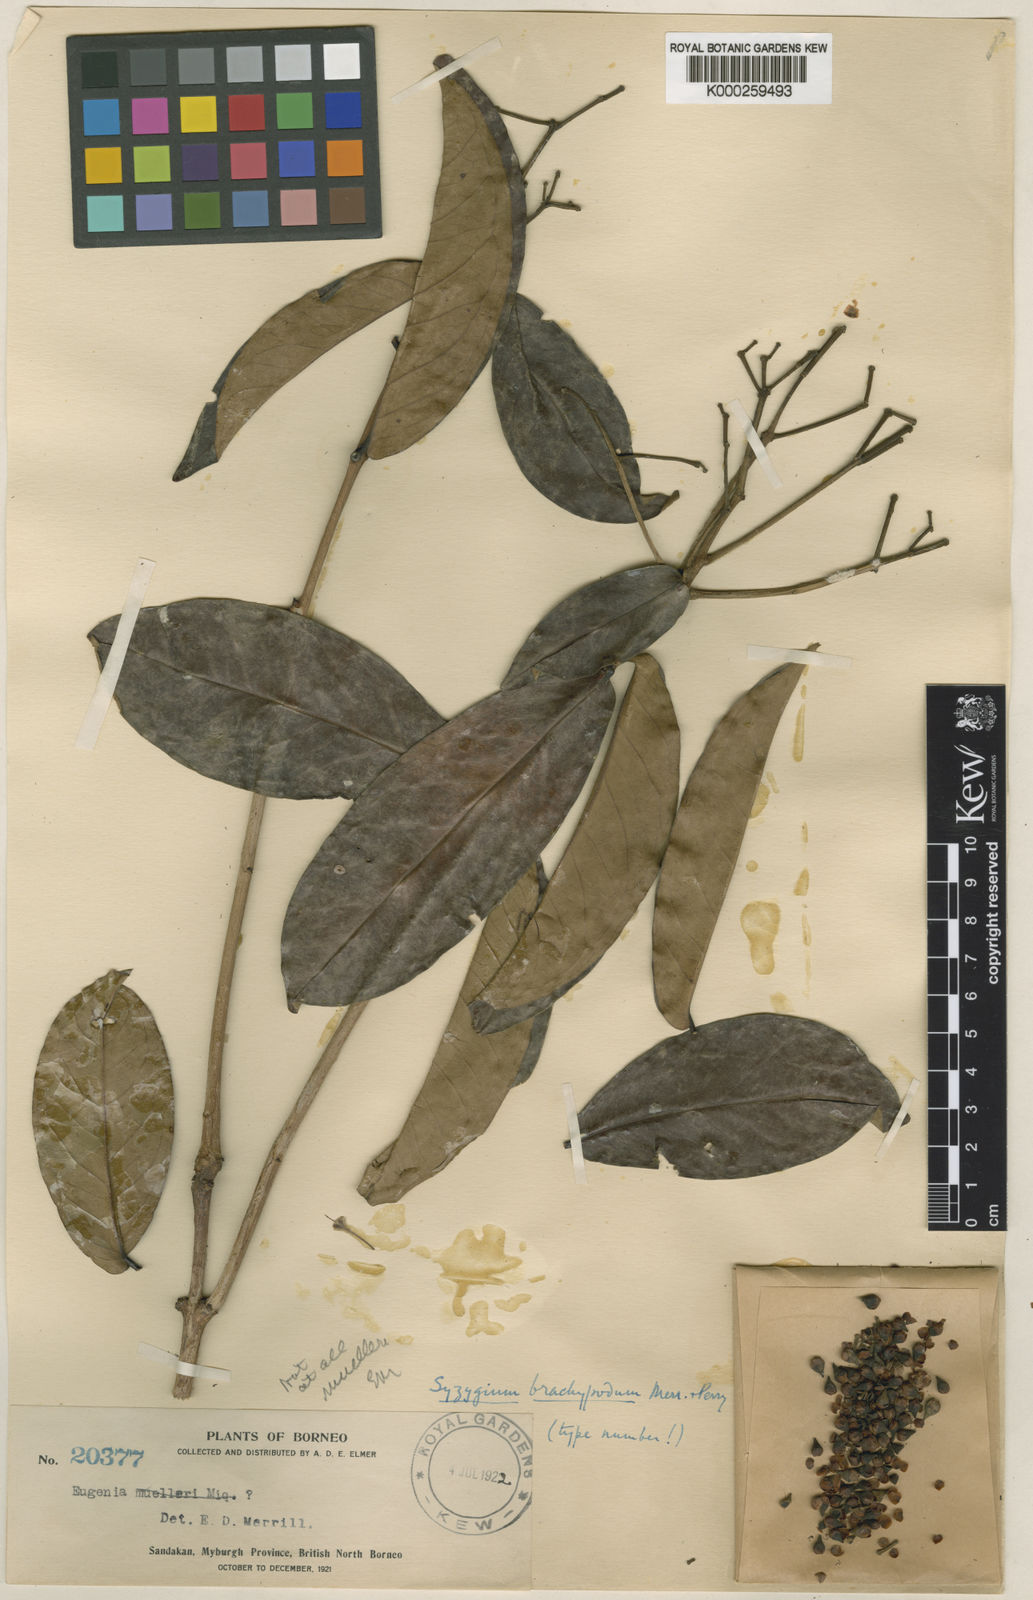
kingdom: Plantae
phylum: Tracheophyta
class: Magnoliopsida
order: Myrtales
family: Myrtaceae
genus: Syzygium
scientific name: Syzygium brachypodum
